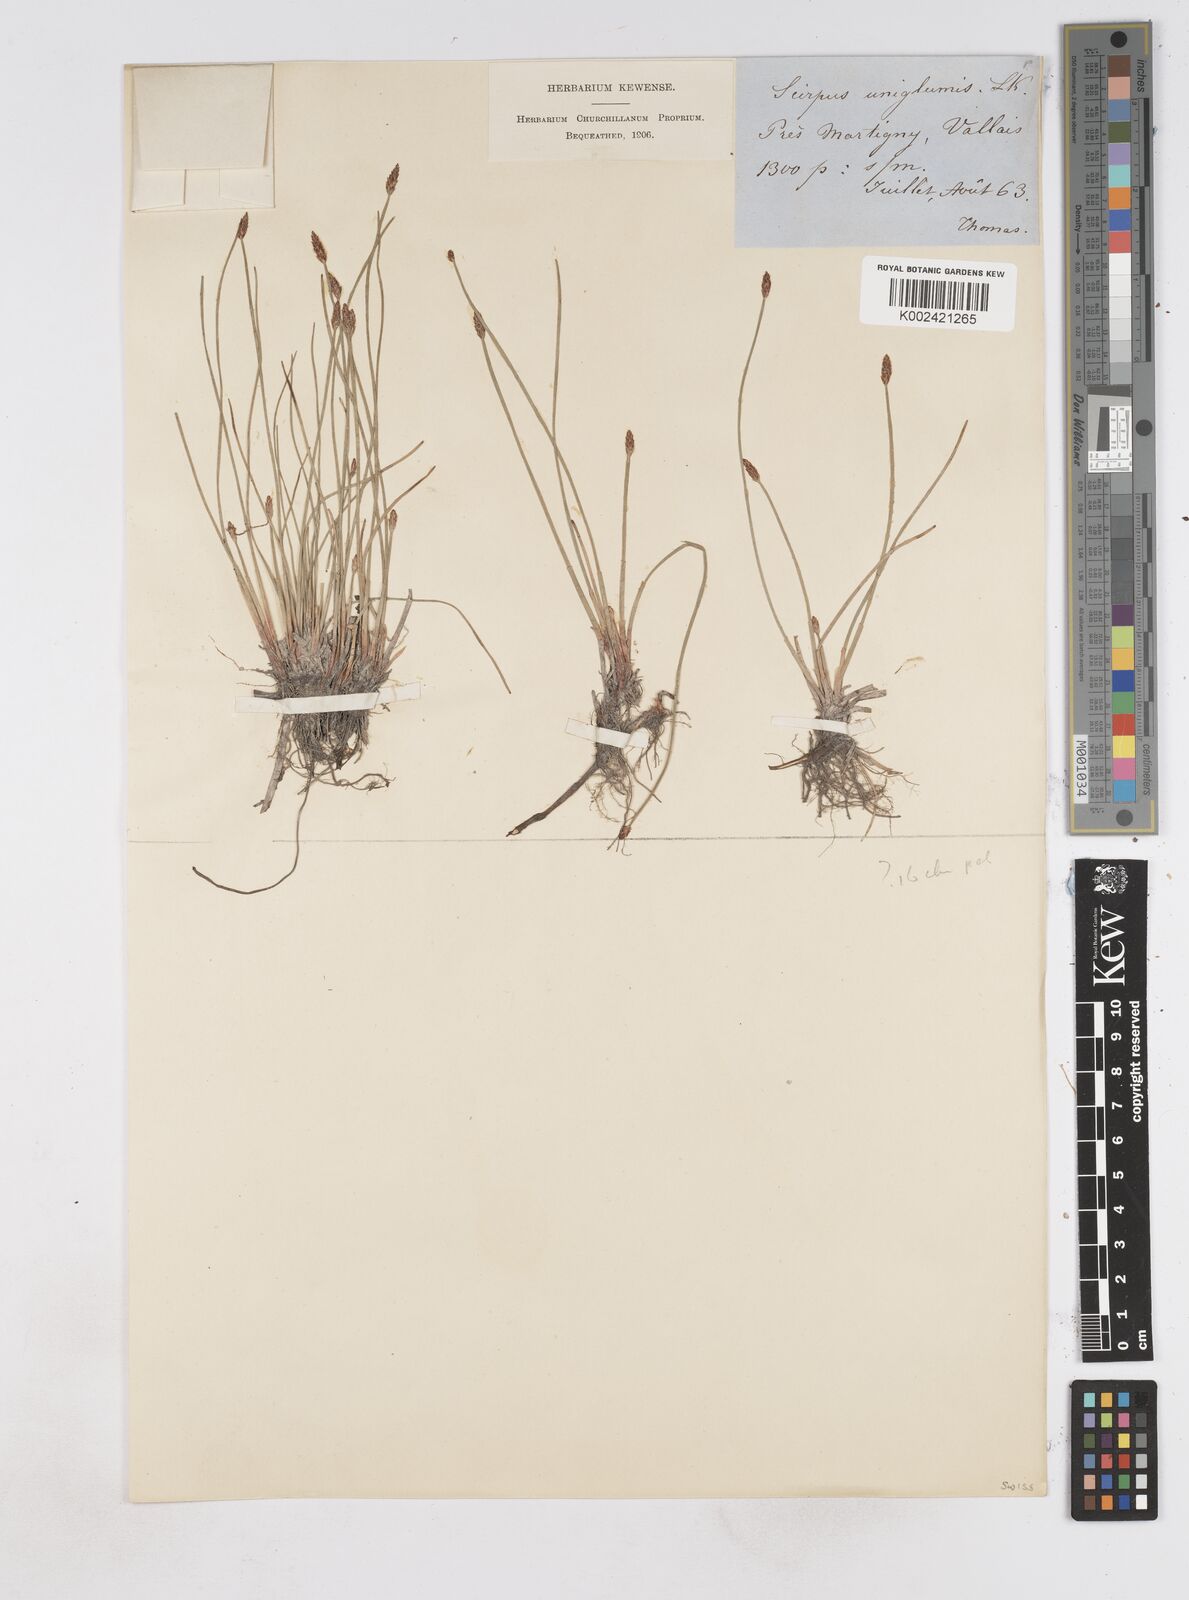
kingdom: Plantae
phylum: Tracheophyta
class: Liliopsida
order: Poales
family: Cyperaceae
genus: Eleocharis
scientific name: Eleocharis palustris
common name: Common spike-rush
